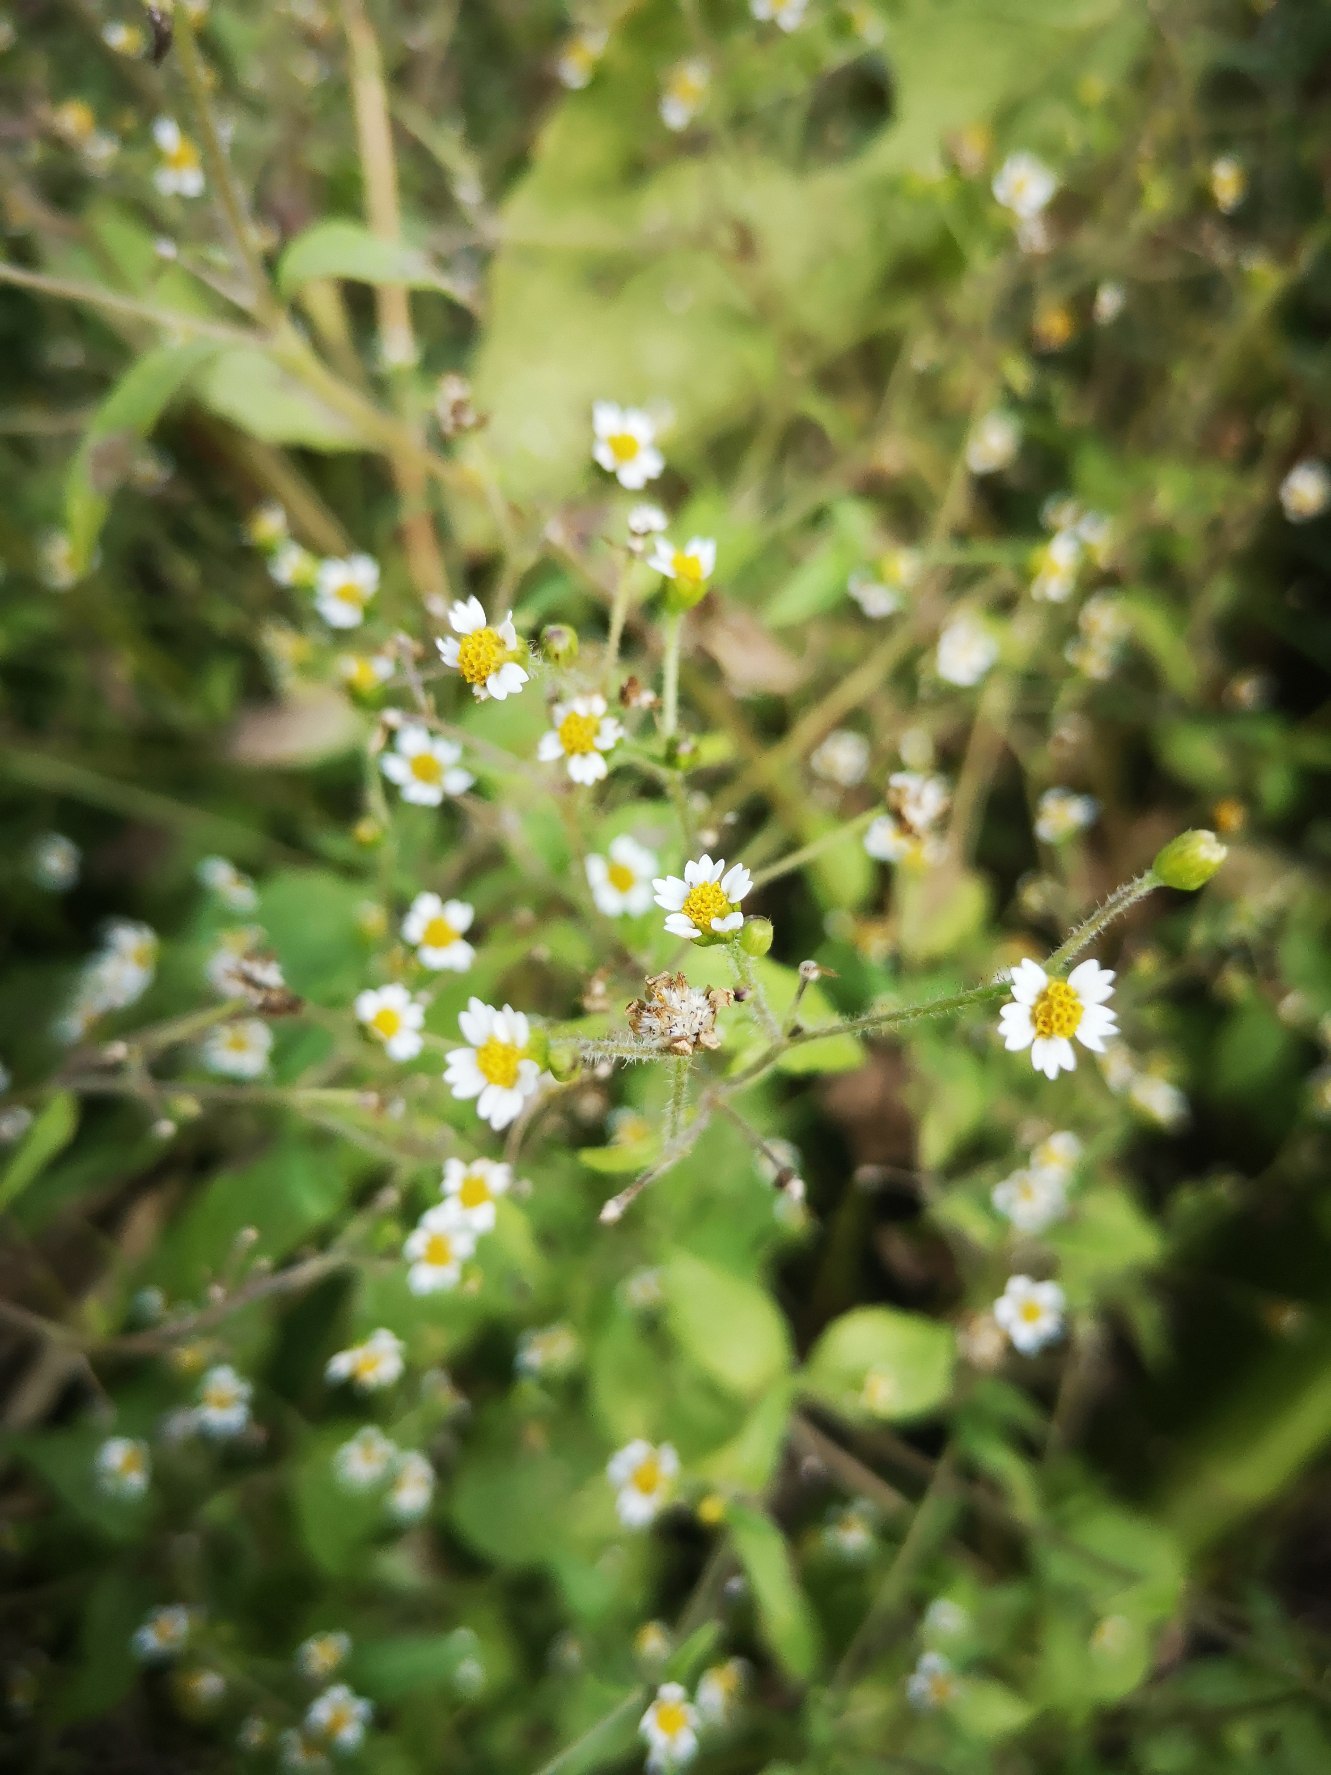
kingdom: Plantae
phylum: Tracheophyta
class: Magnoliopsida
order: Asterales
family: Asteraceae
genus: Galinsoga
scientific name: Galinsoga quadriradiata
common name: Kirtel-kortstråle
